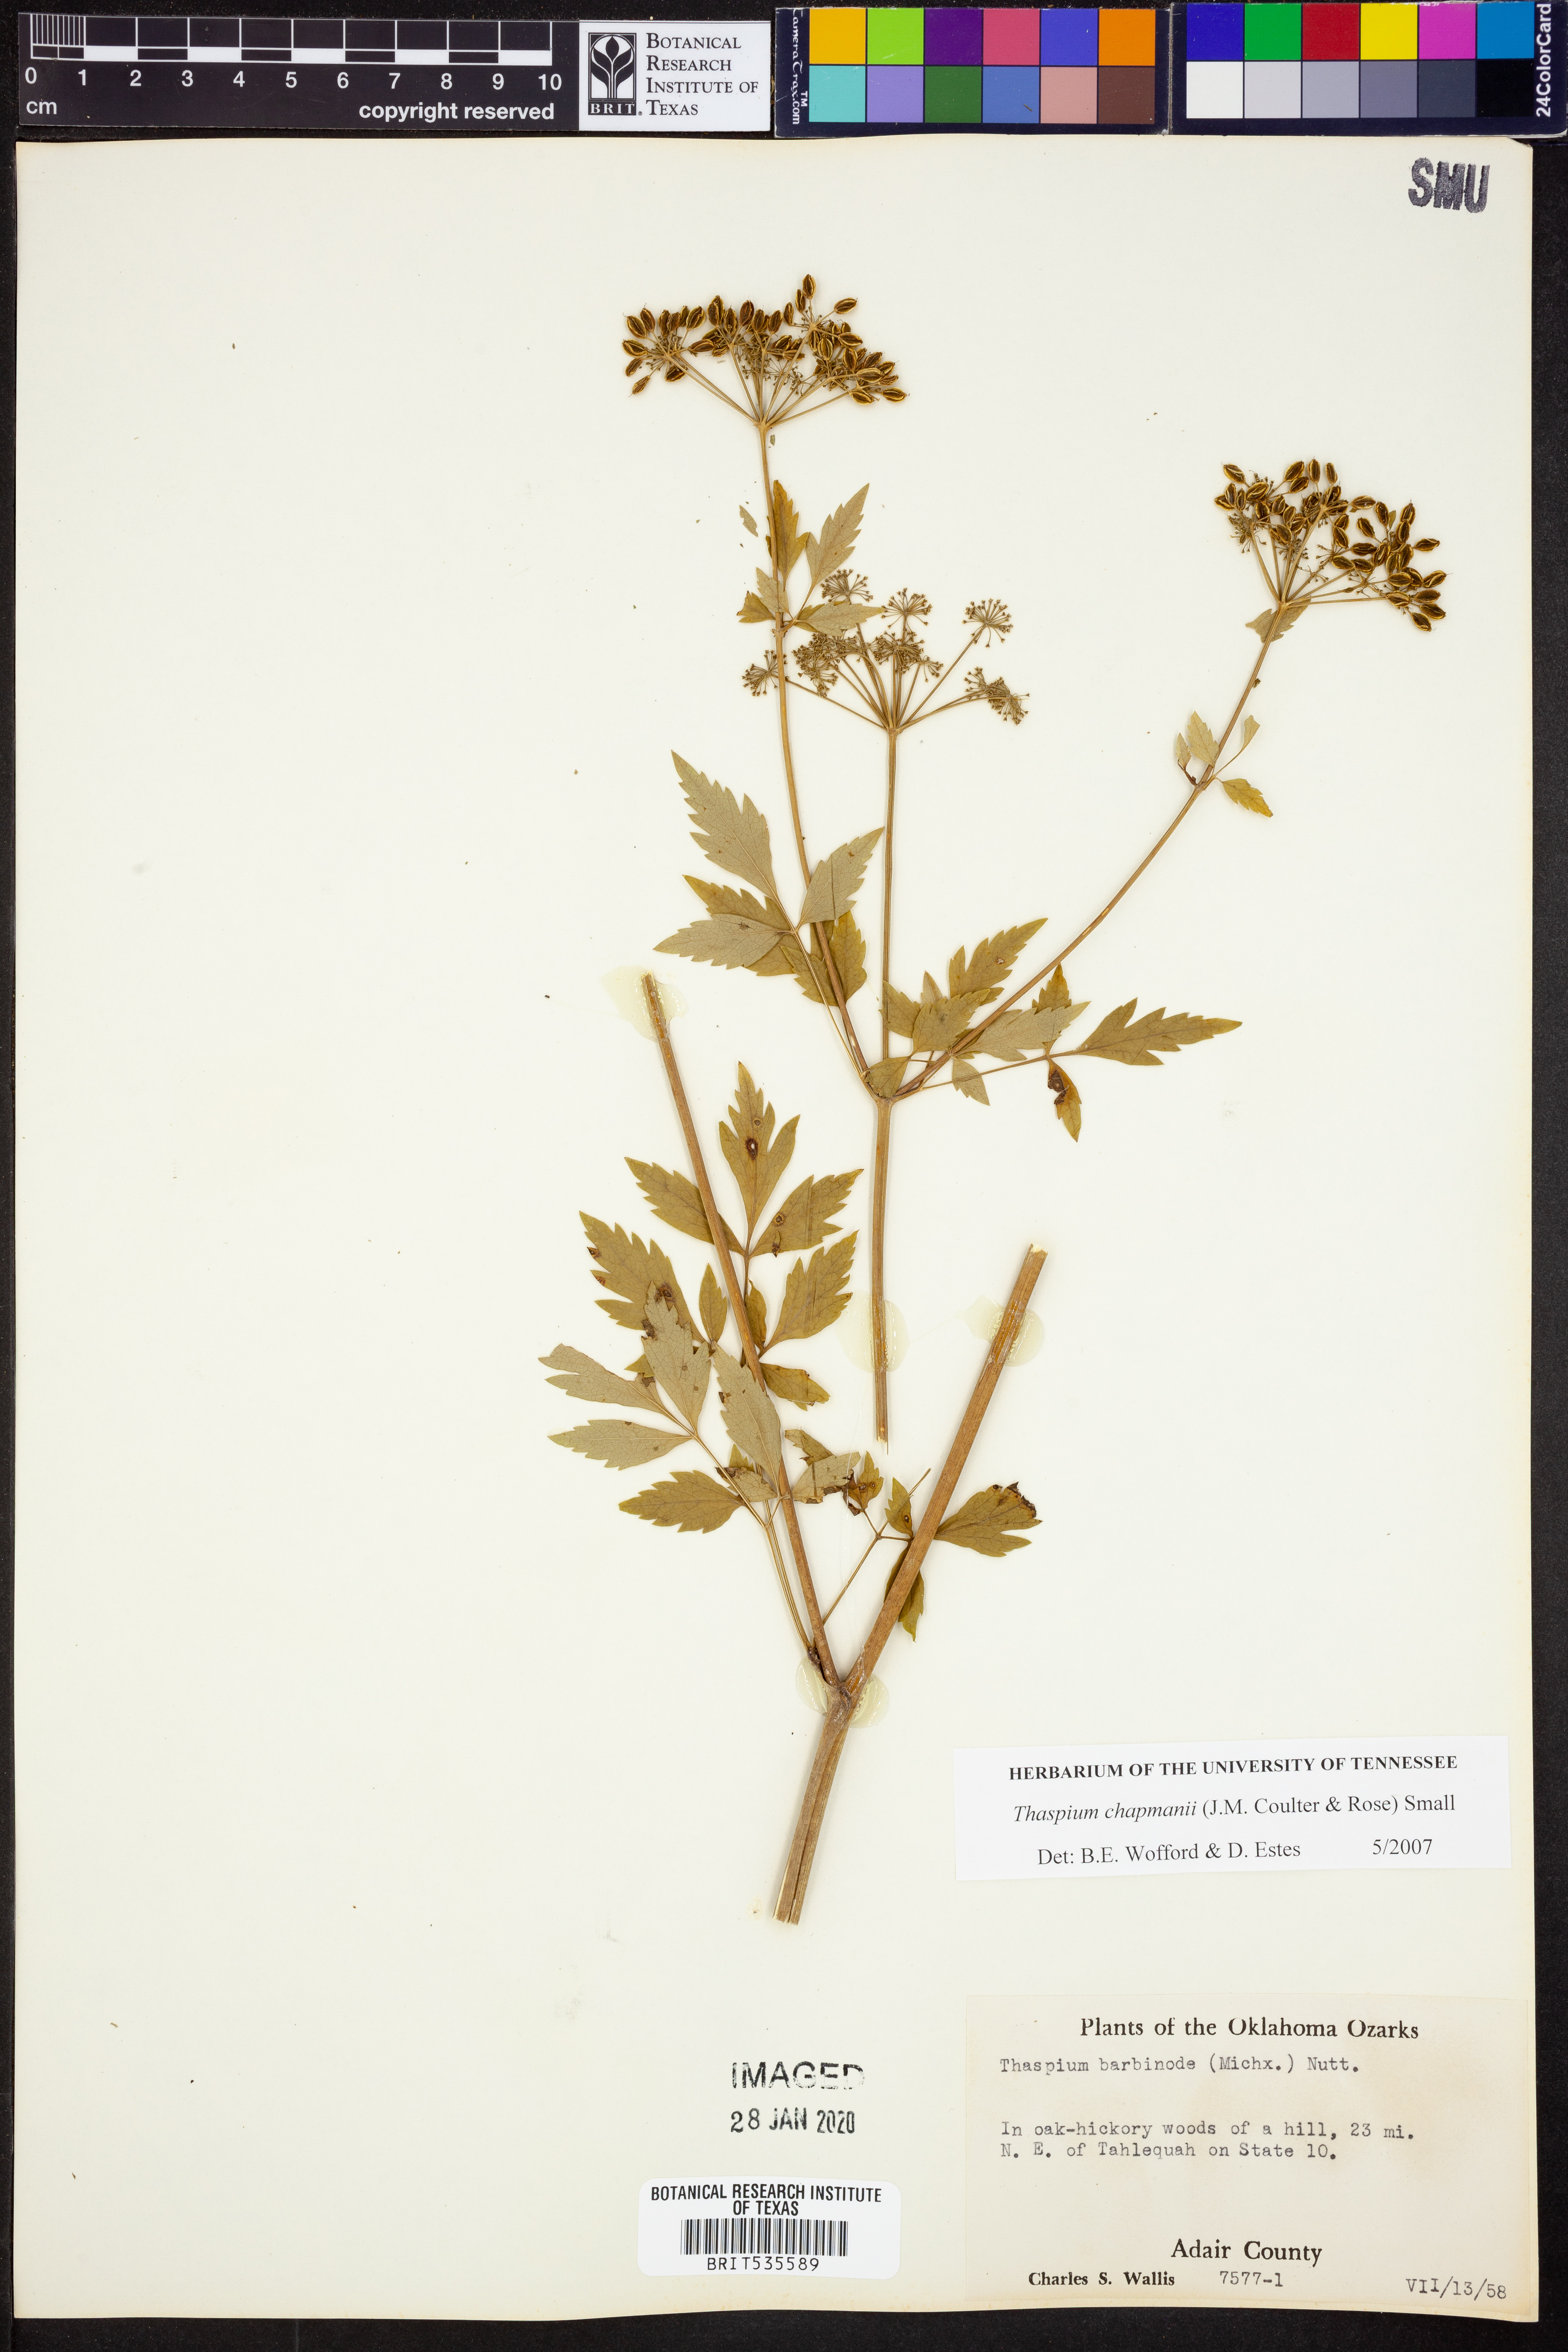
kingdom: Plantae
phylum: Tracheophyta
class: Magnoliopsida
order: Apiales
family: Apiaceae
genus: Thaspium
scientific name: Thaspium barbinode
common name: Bearded meadow-parsnip
